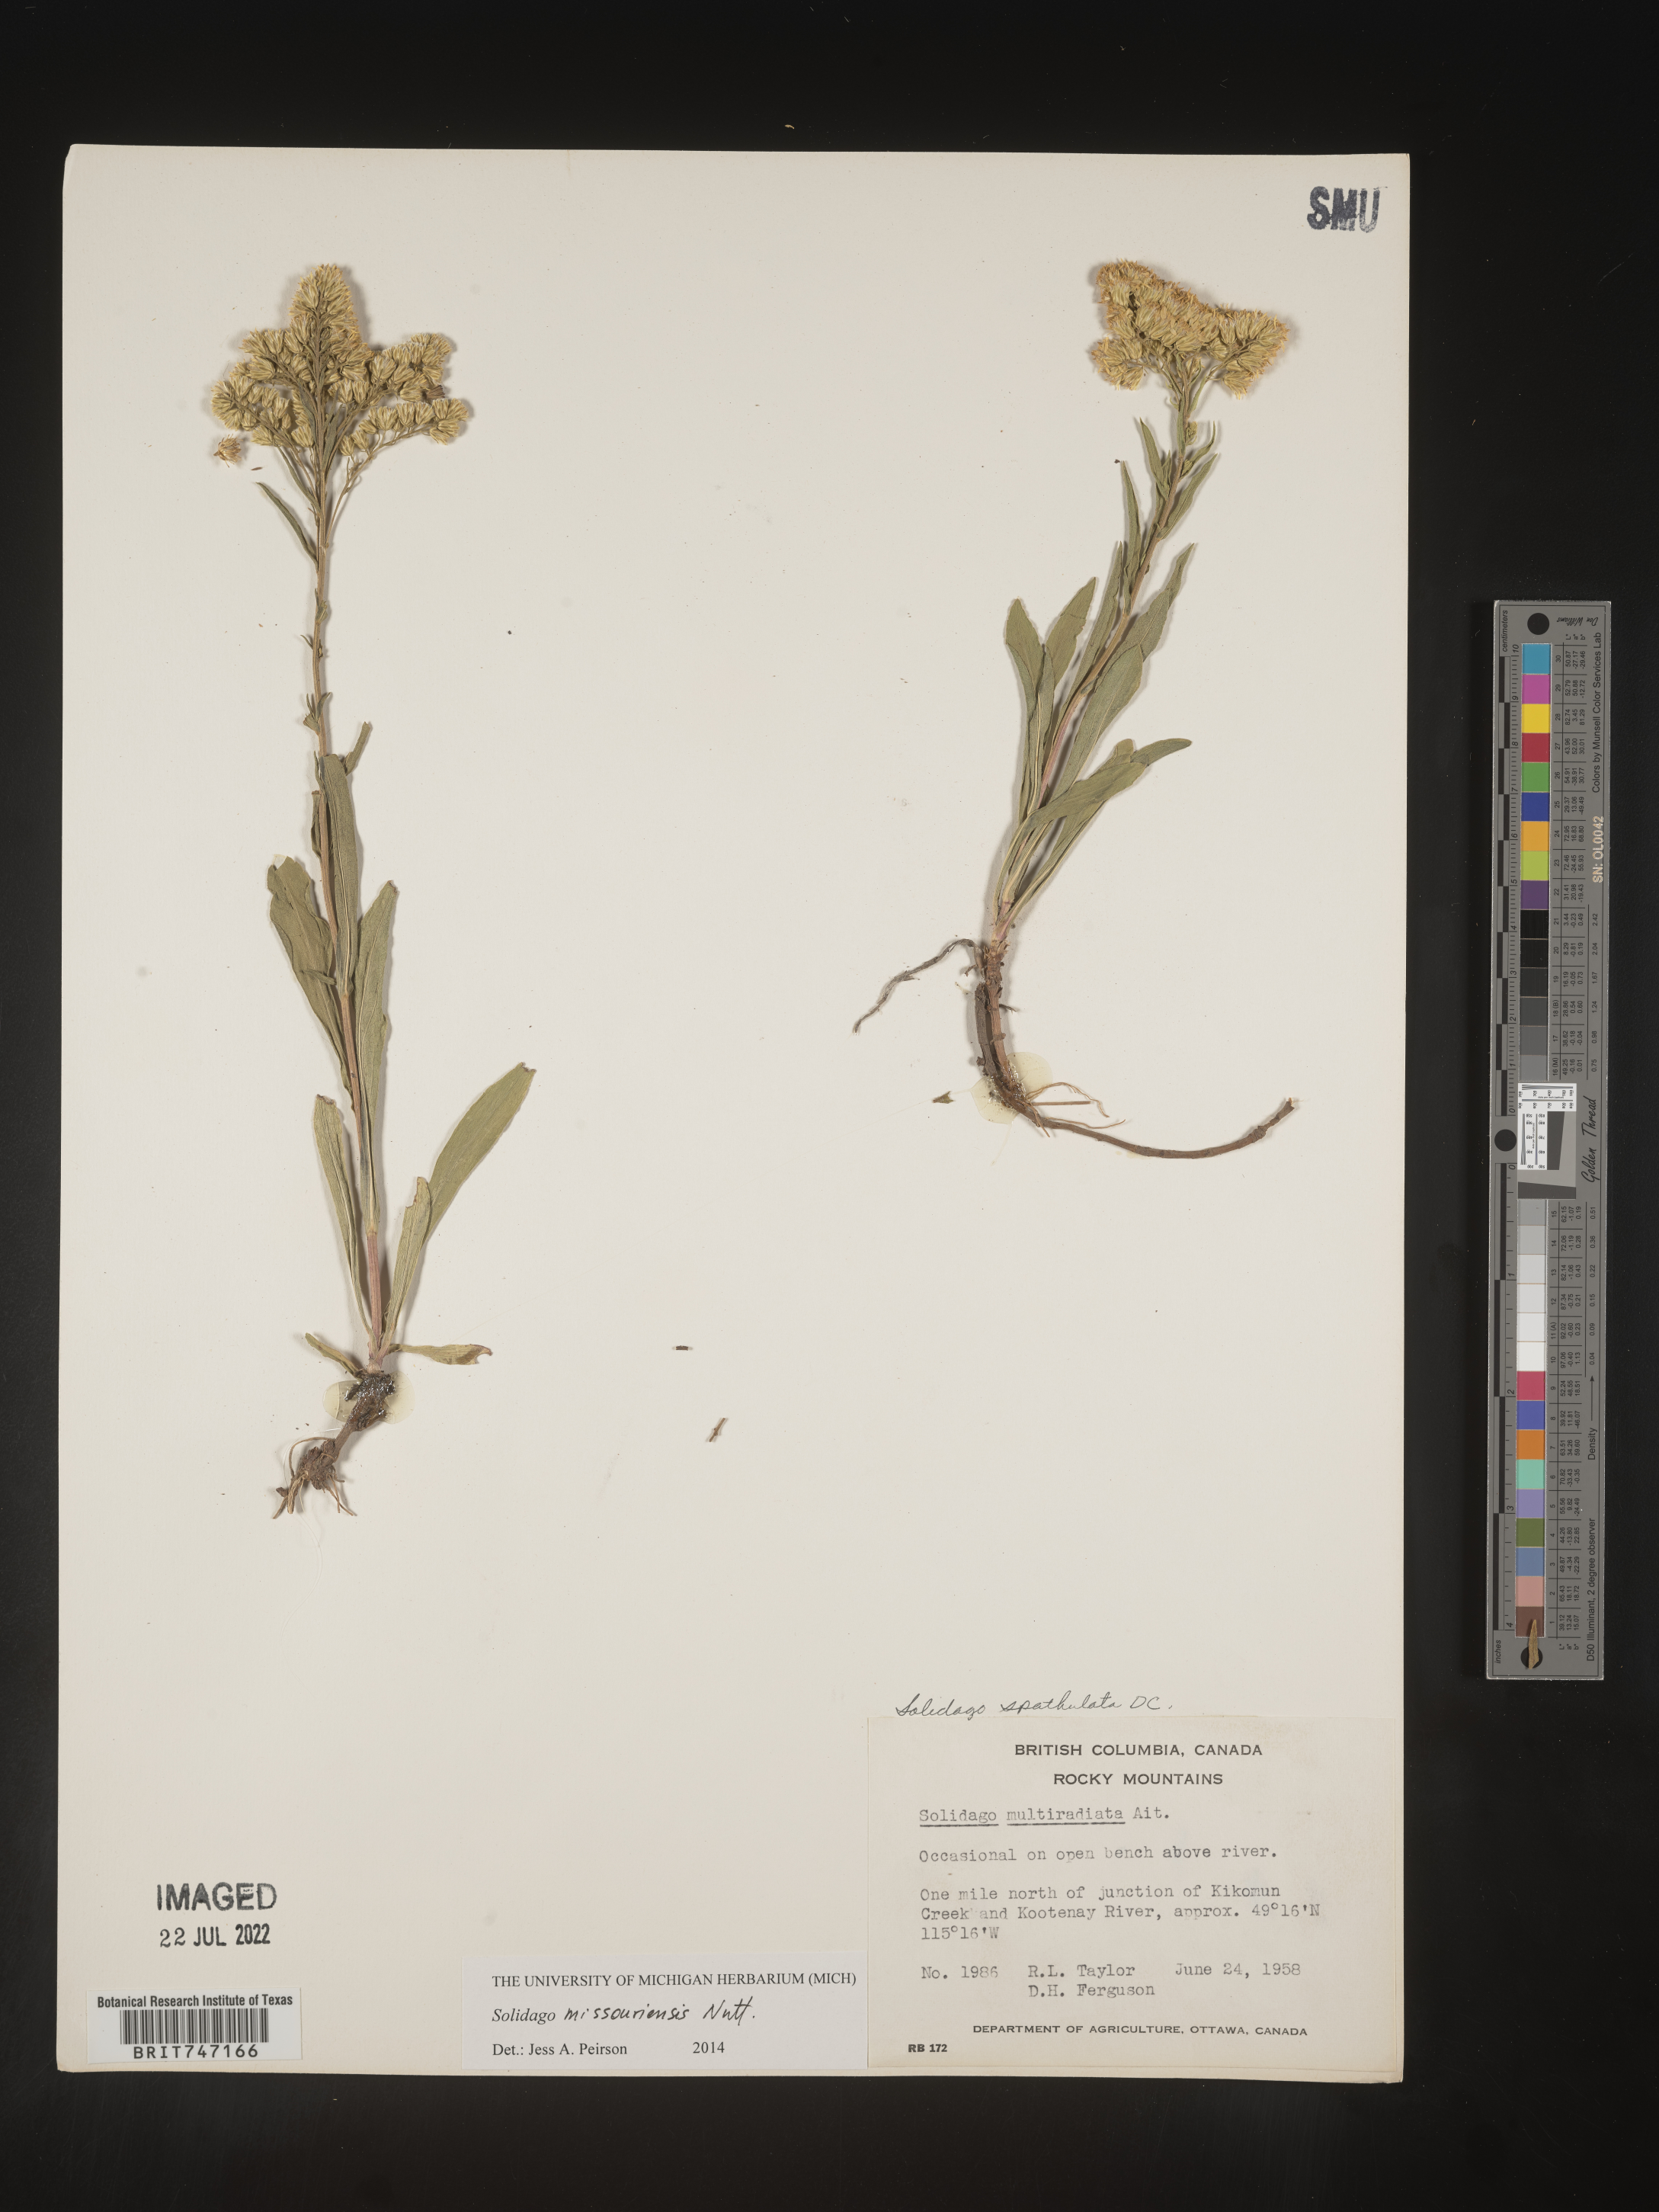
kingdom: Plantae
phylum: Tracheophyta
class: Magnoliopsida
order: Asterales
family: Asteraceae
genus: Solidago
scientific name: Solidago missouriensis
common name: Prairie goldenrod
